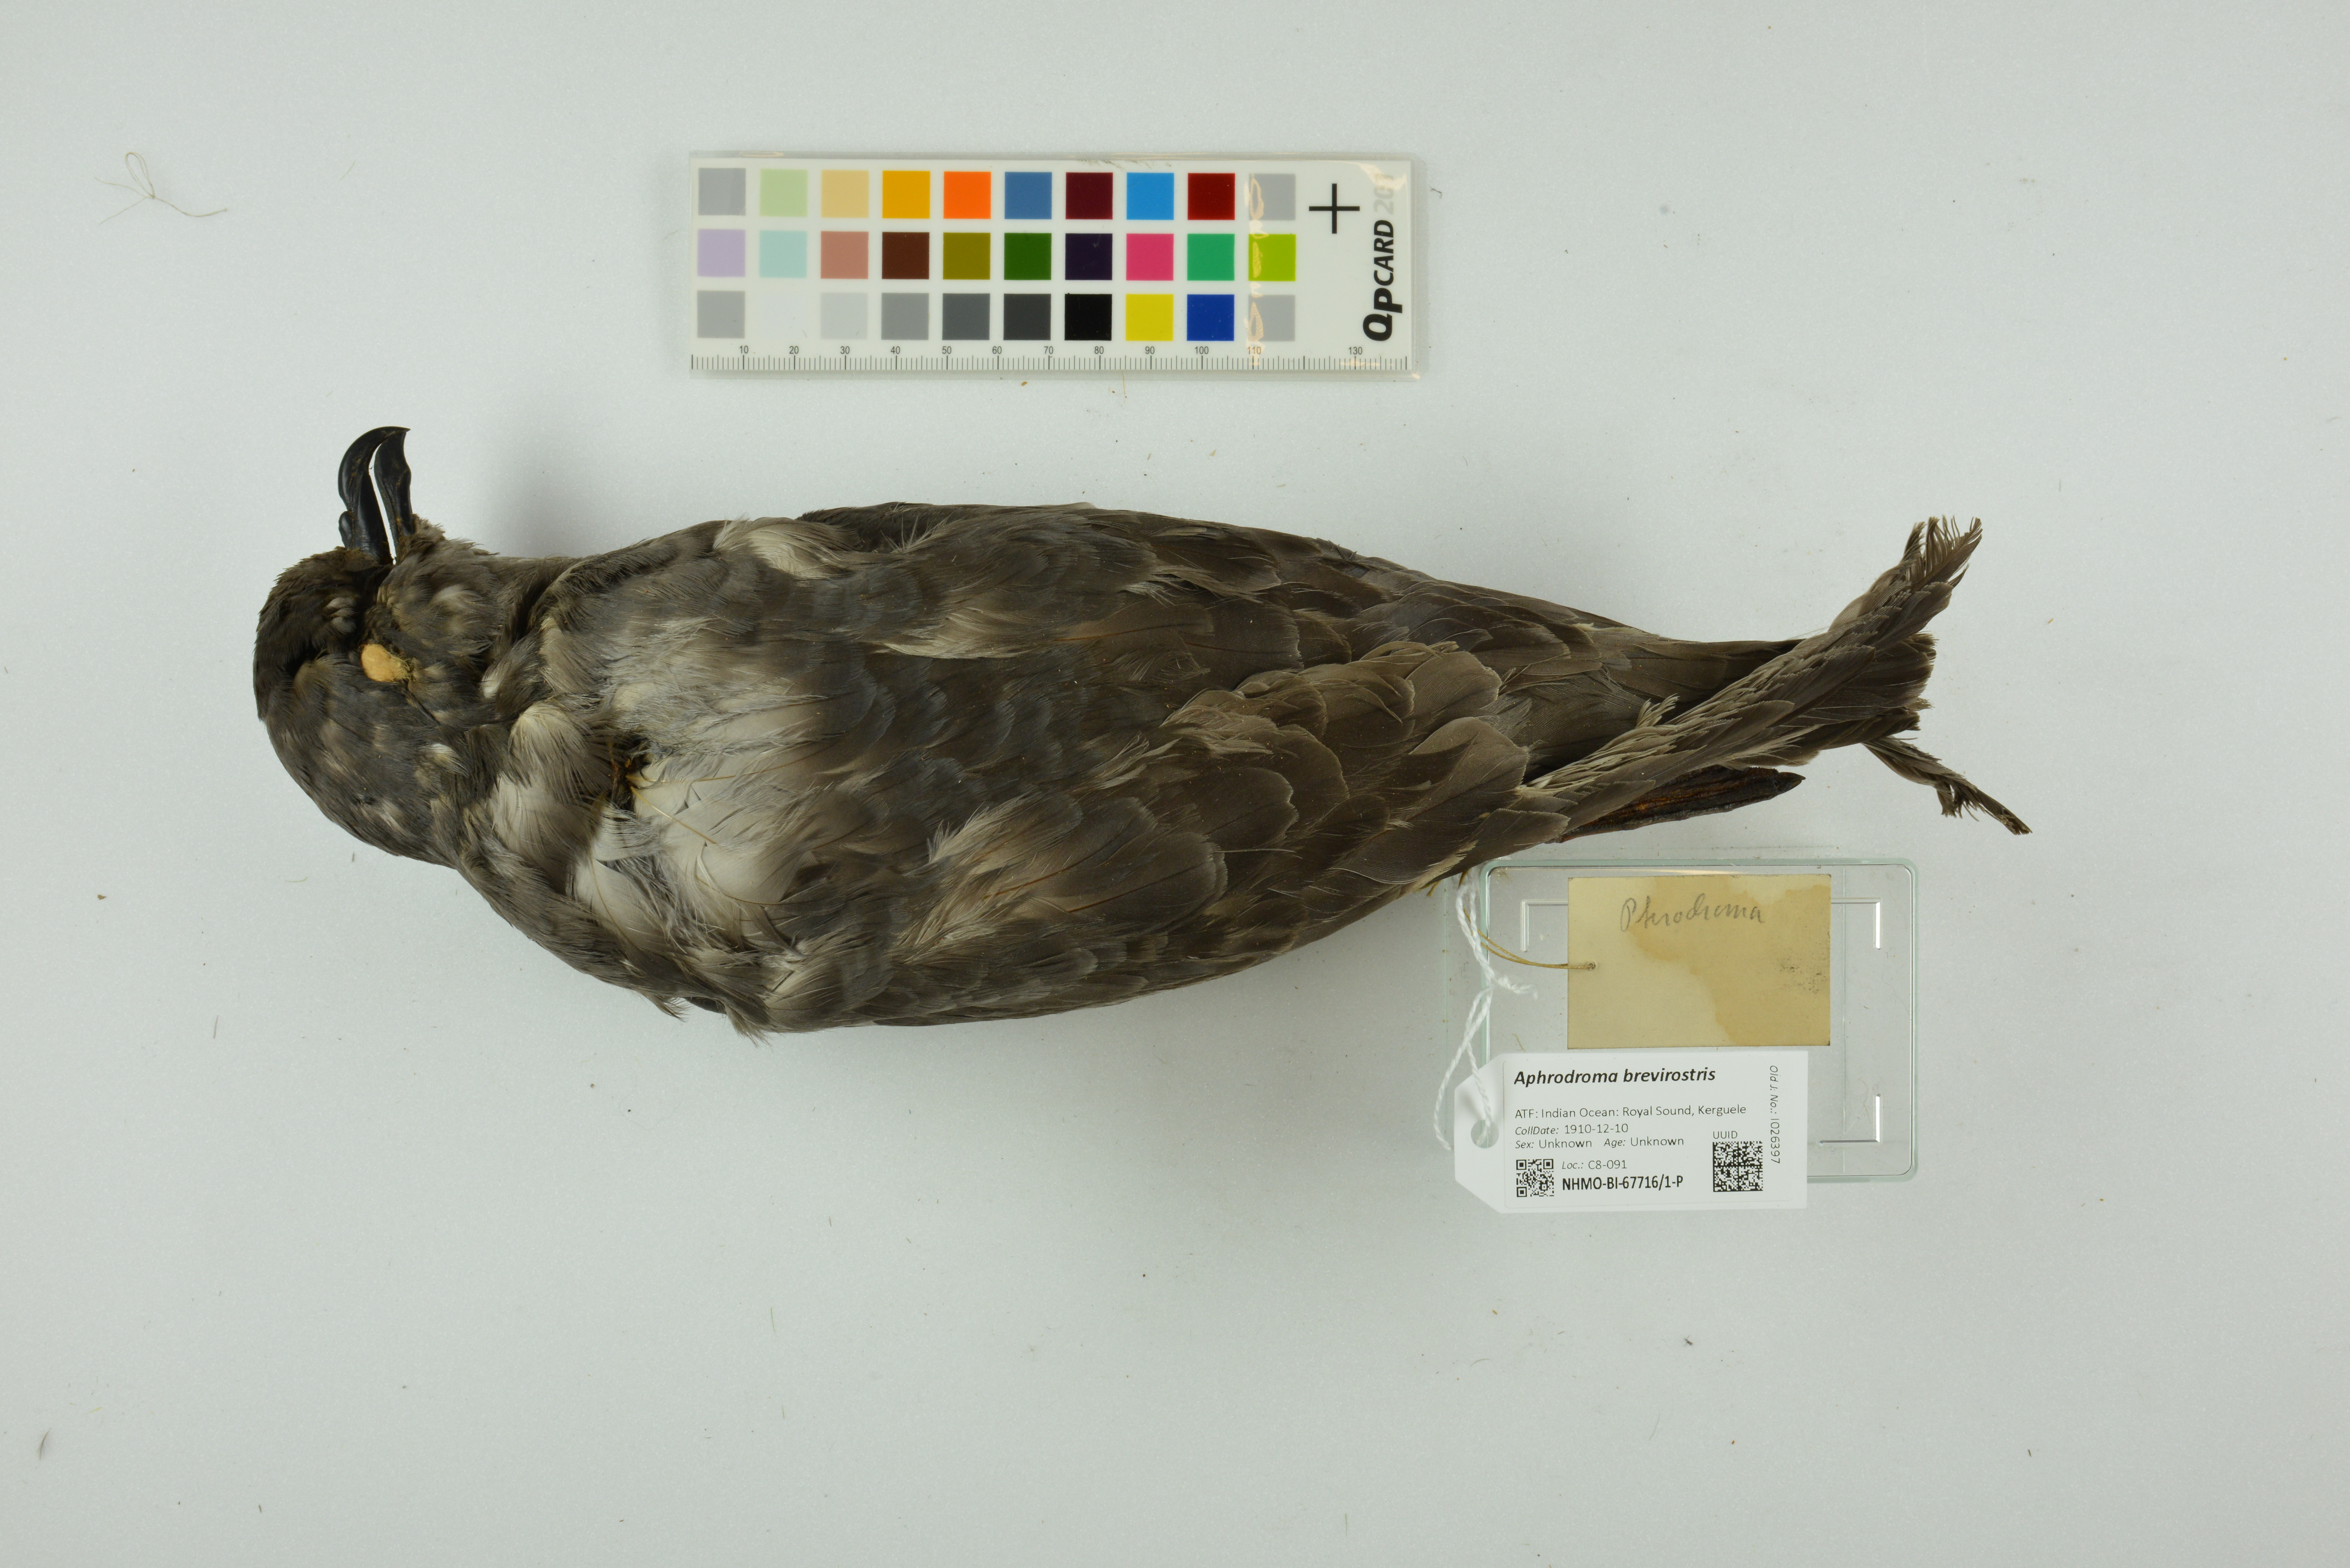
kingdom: Animalia
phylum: Chordata
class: Aves
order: Procellariiformes
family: Procellariidae
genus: Aphrodroma
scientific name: Aphrodroma brevirostris
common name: Kerguelen petrel
